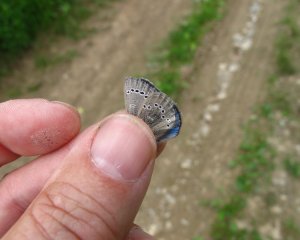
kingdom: Animalia
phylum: Arthropoda
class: Insecta
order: Lepidoptera
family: Lycaenidae
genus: Glaucopsyche
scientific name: Glaucopsyche lygdamus
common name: Silvery Blue
